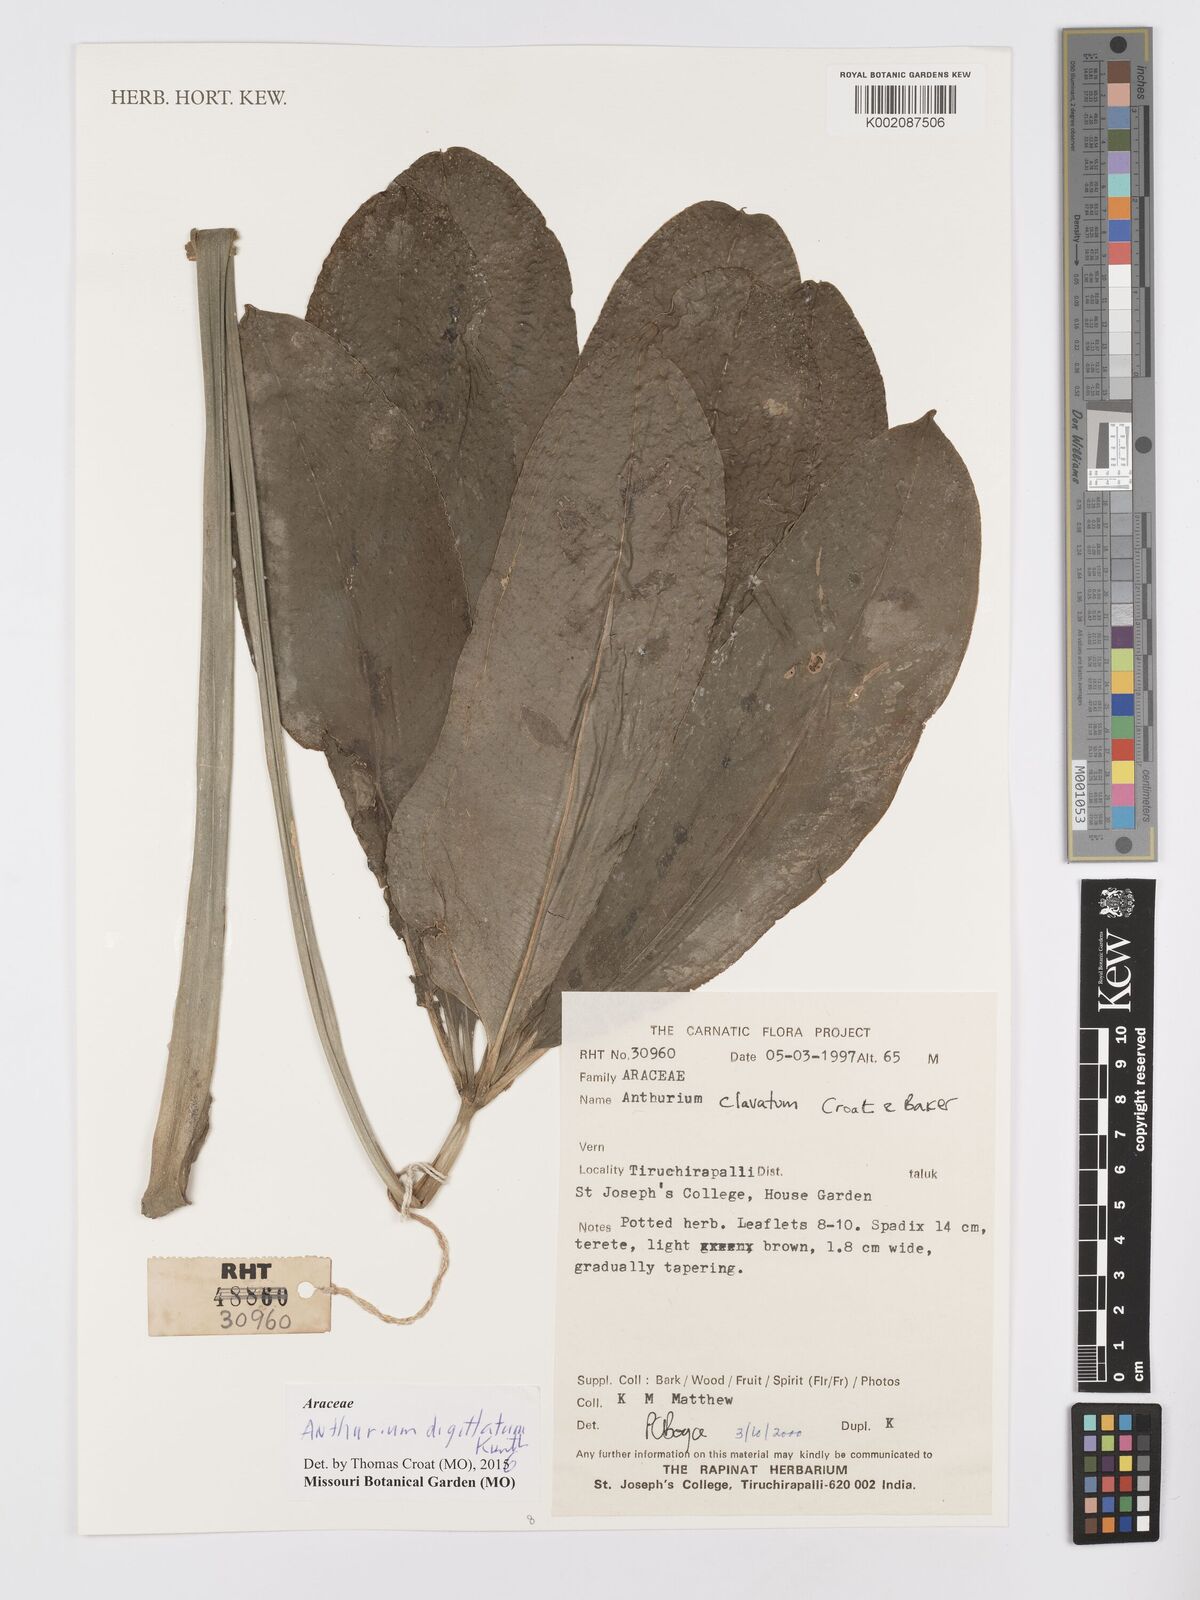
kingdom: Plantae
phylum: Tracheophyta
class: Liliopsida
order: Alismatales
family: Araceae
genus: Anthurium
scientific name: Anthurium digitatum
